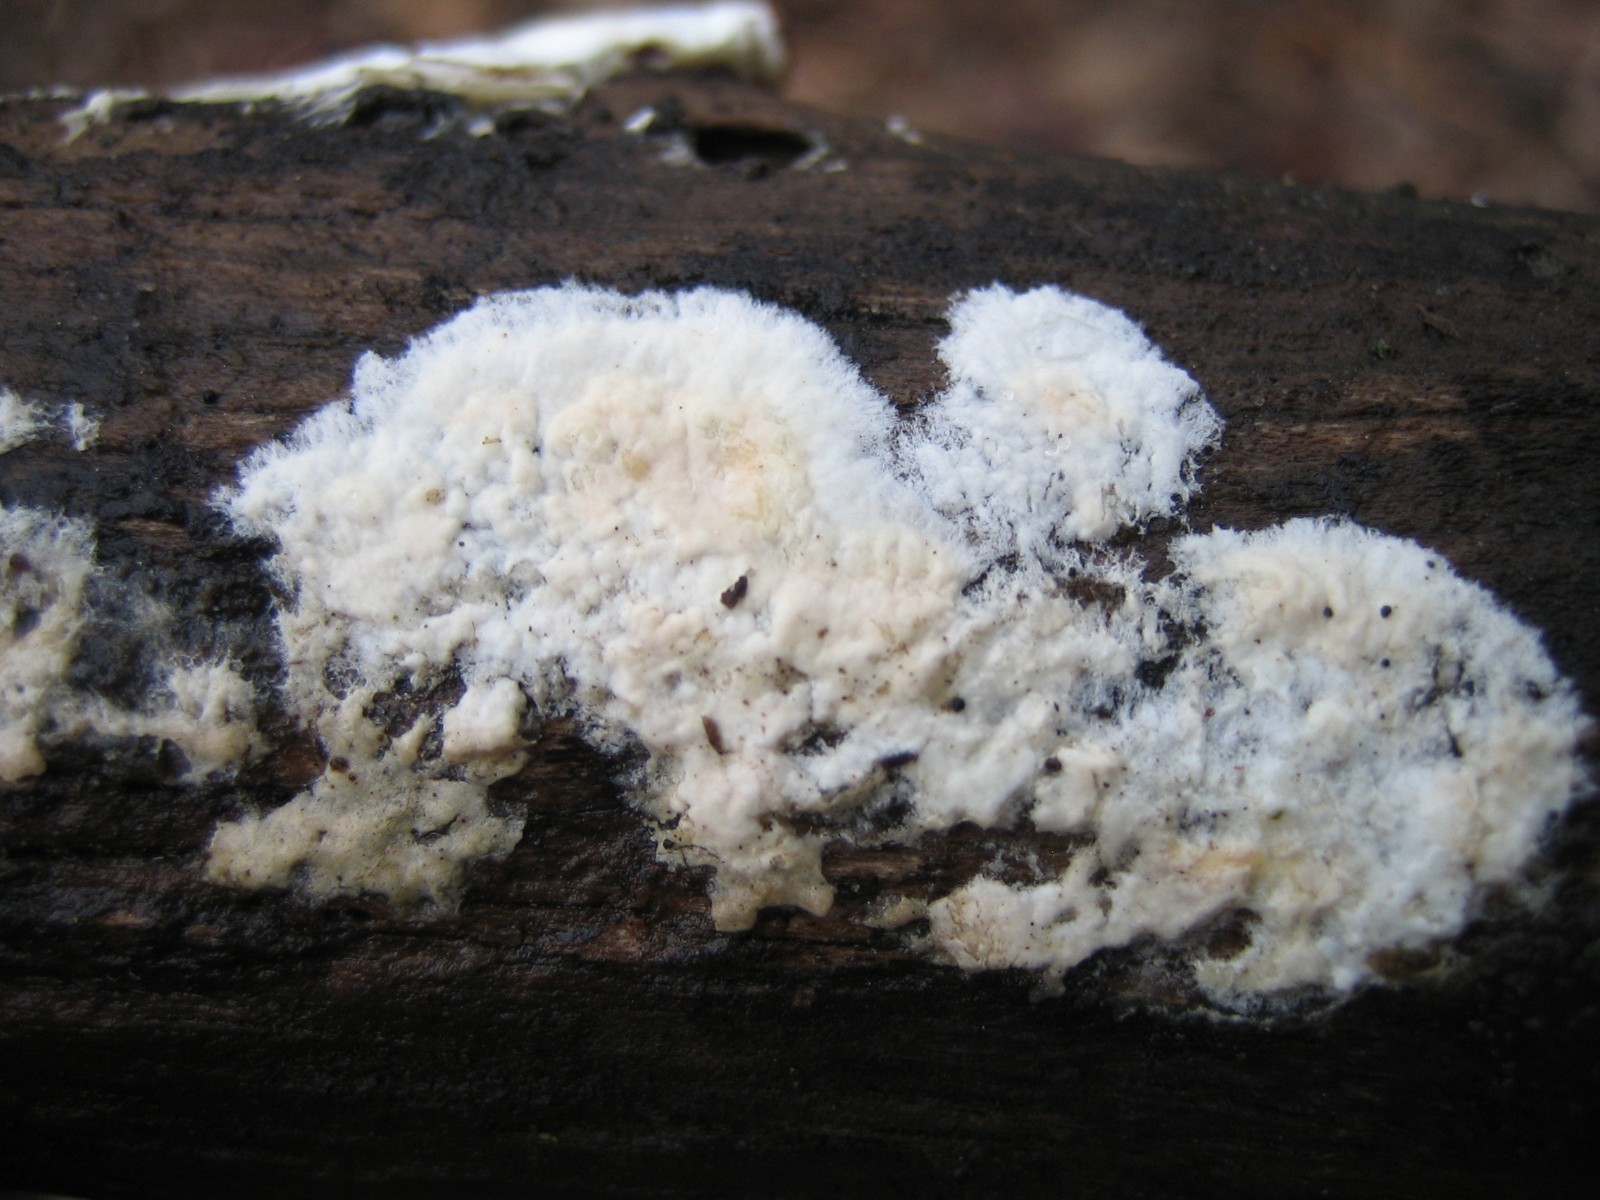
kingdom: Fungi
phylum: Basidiomycota
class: Agaricomycetes
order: Corticiales
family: Corticiaceae
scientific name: Corticiaceae
